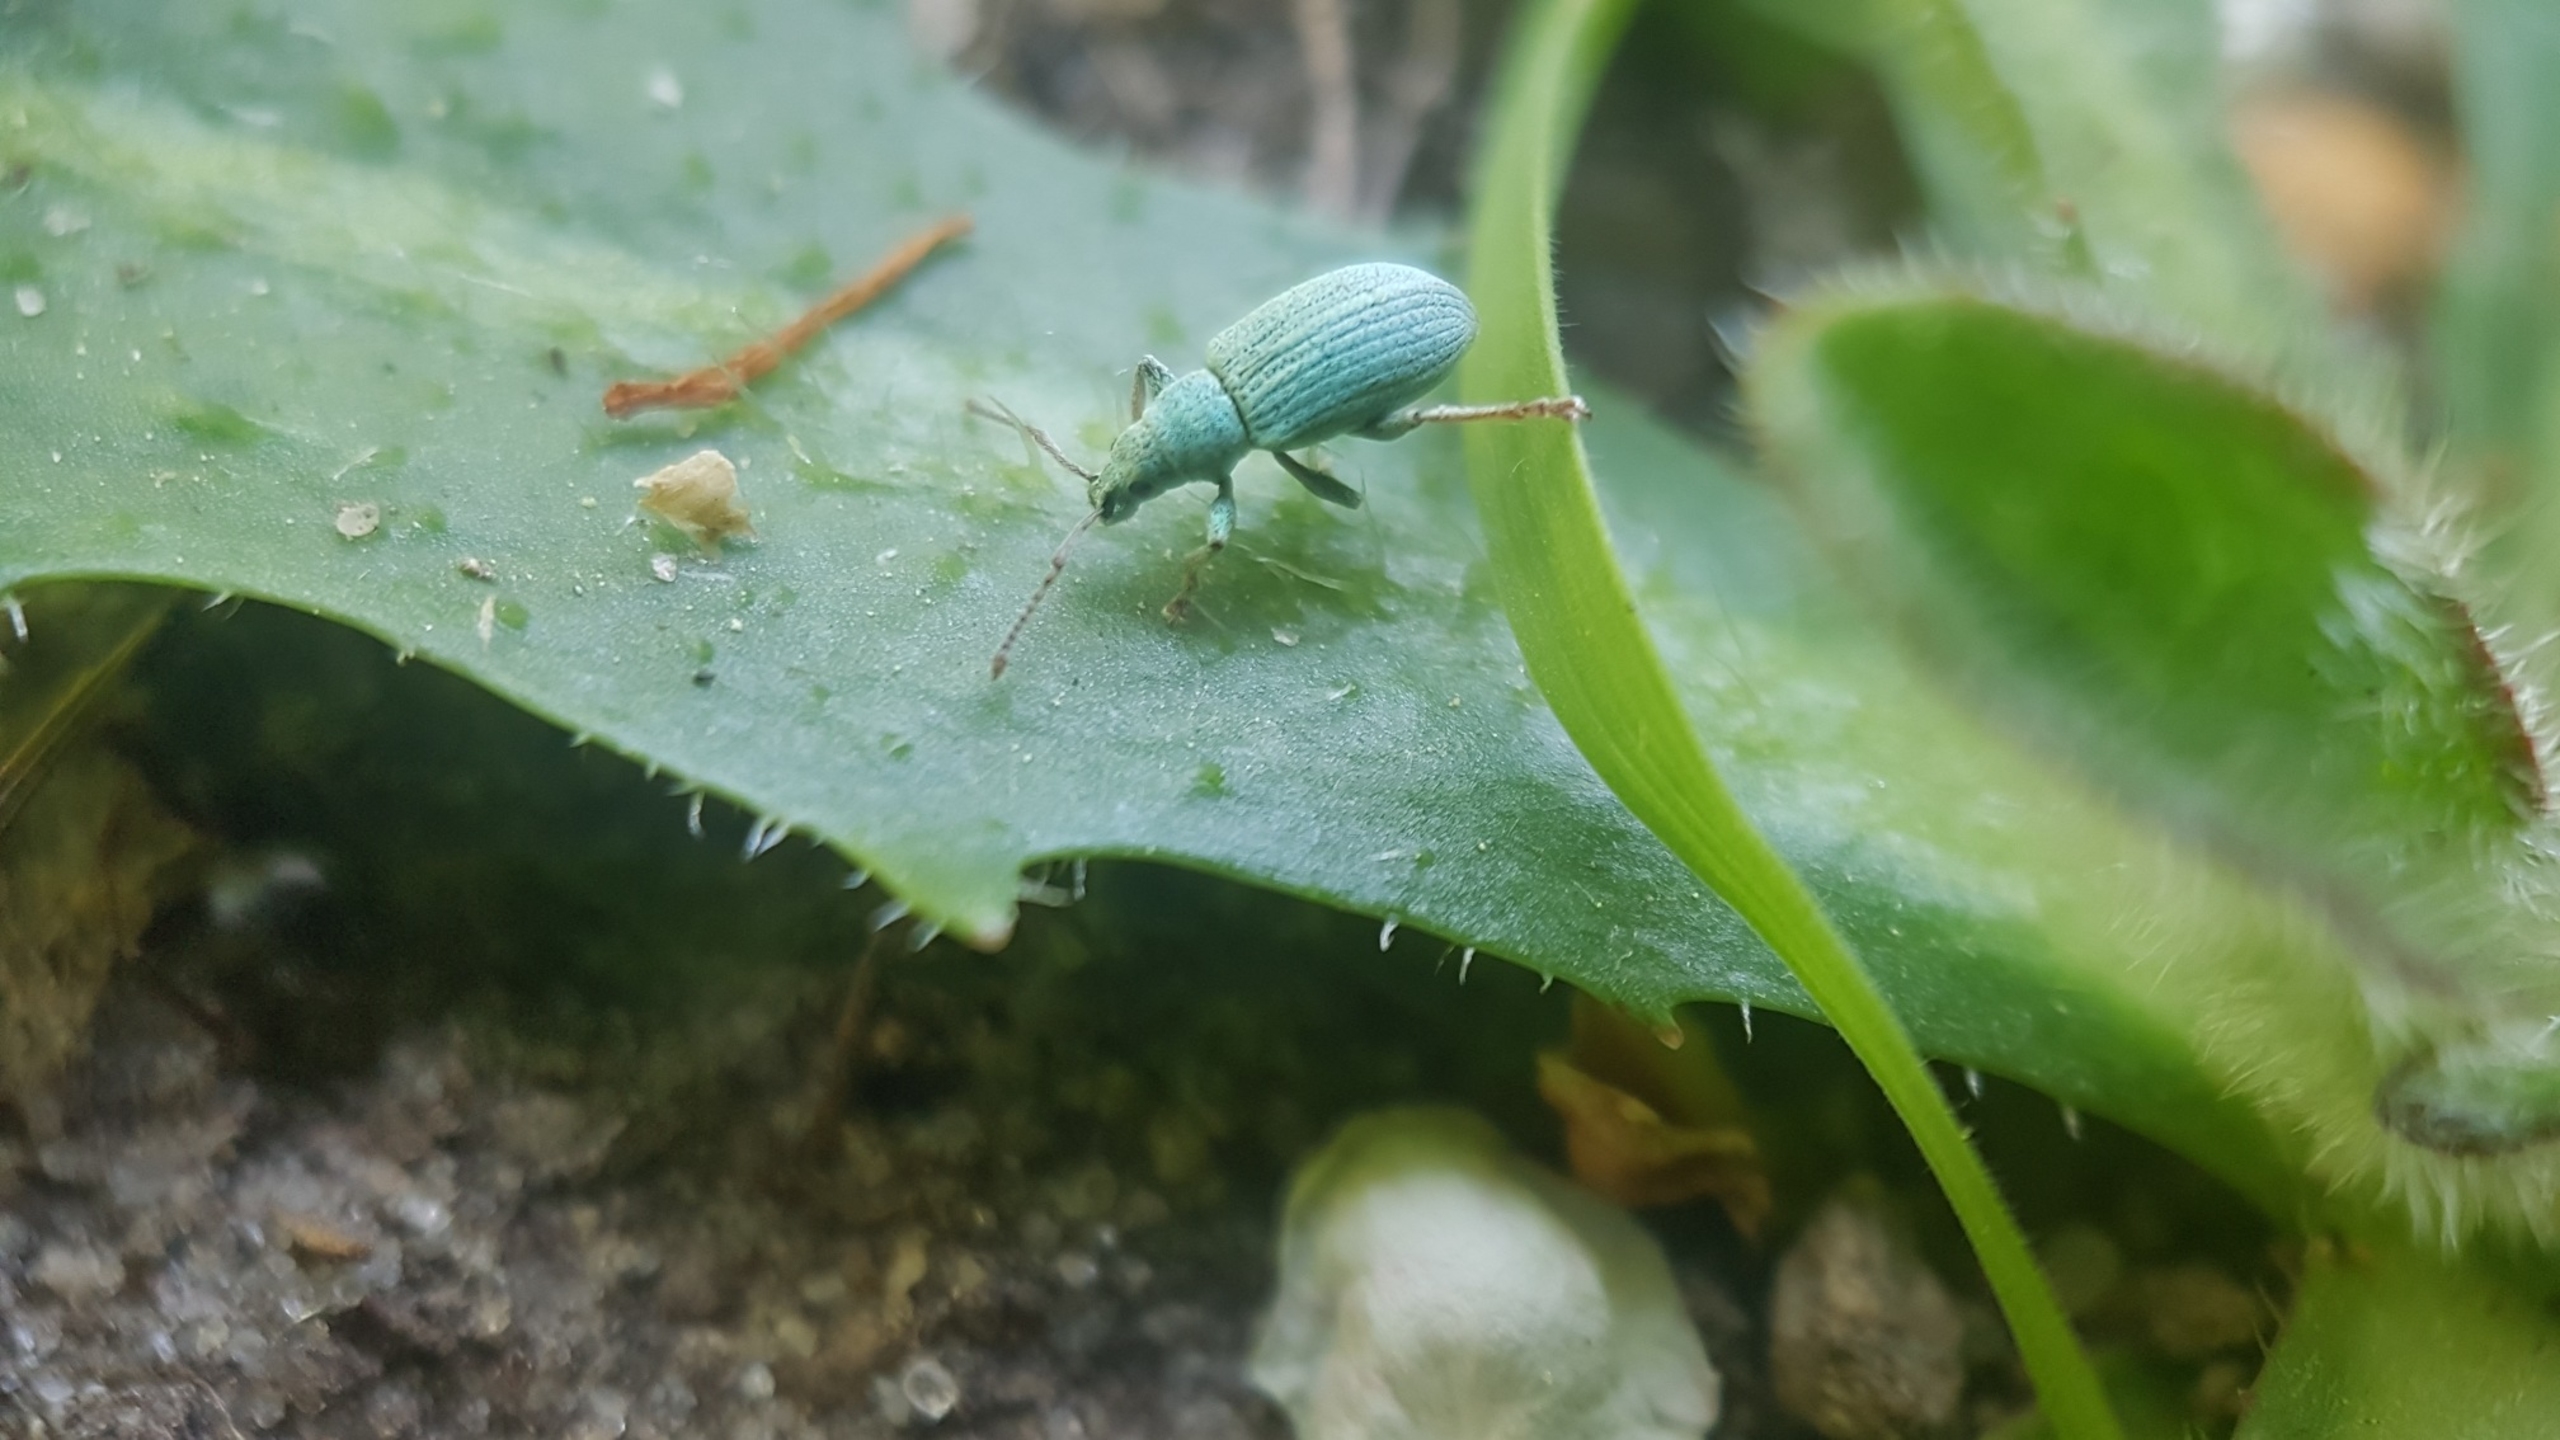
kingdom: Animalia
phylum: Arthropoda
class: Insecta
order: Coleoptera
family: Curculionidae
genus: Phyllobius
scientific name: Phyllobius virideaeris
